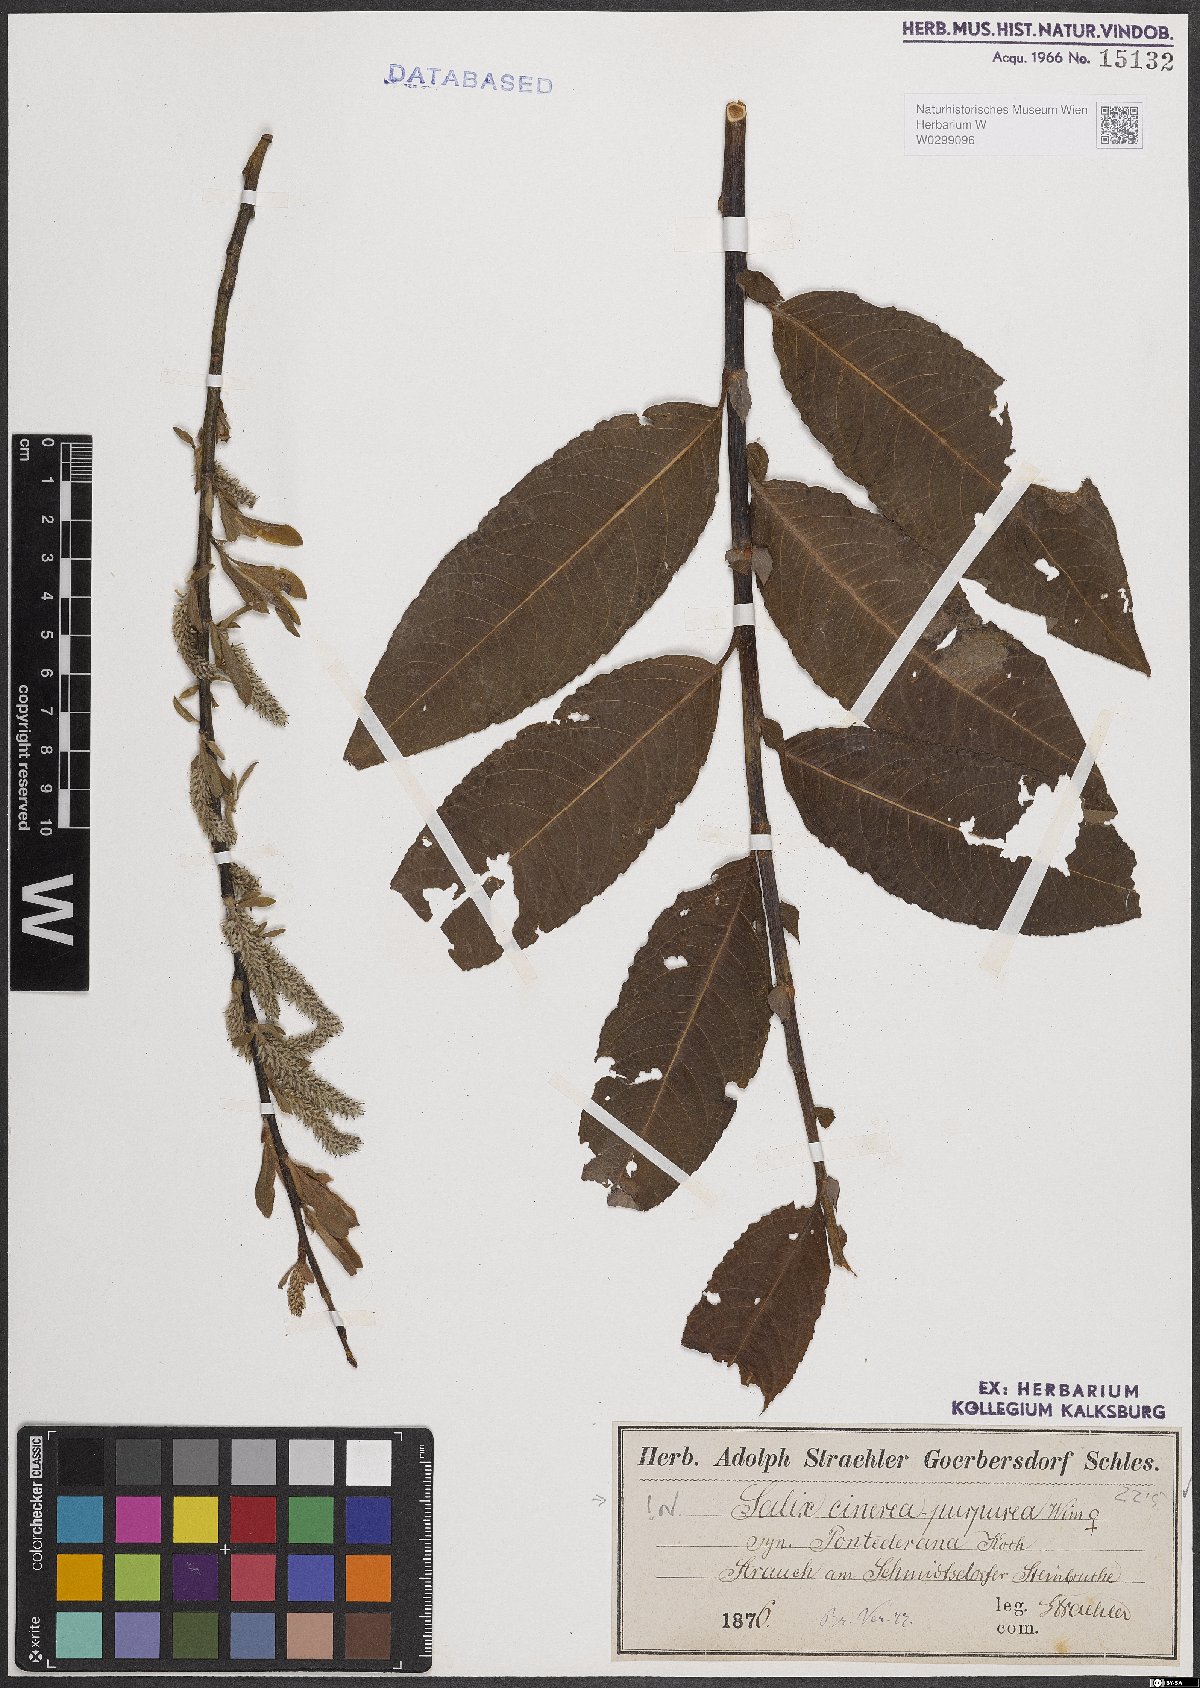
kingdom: Plantae
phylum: Tracheophyta
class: Magnoliopsida
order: Malpighiales
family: Salicaceae
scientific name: Salicaceae
